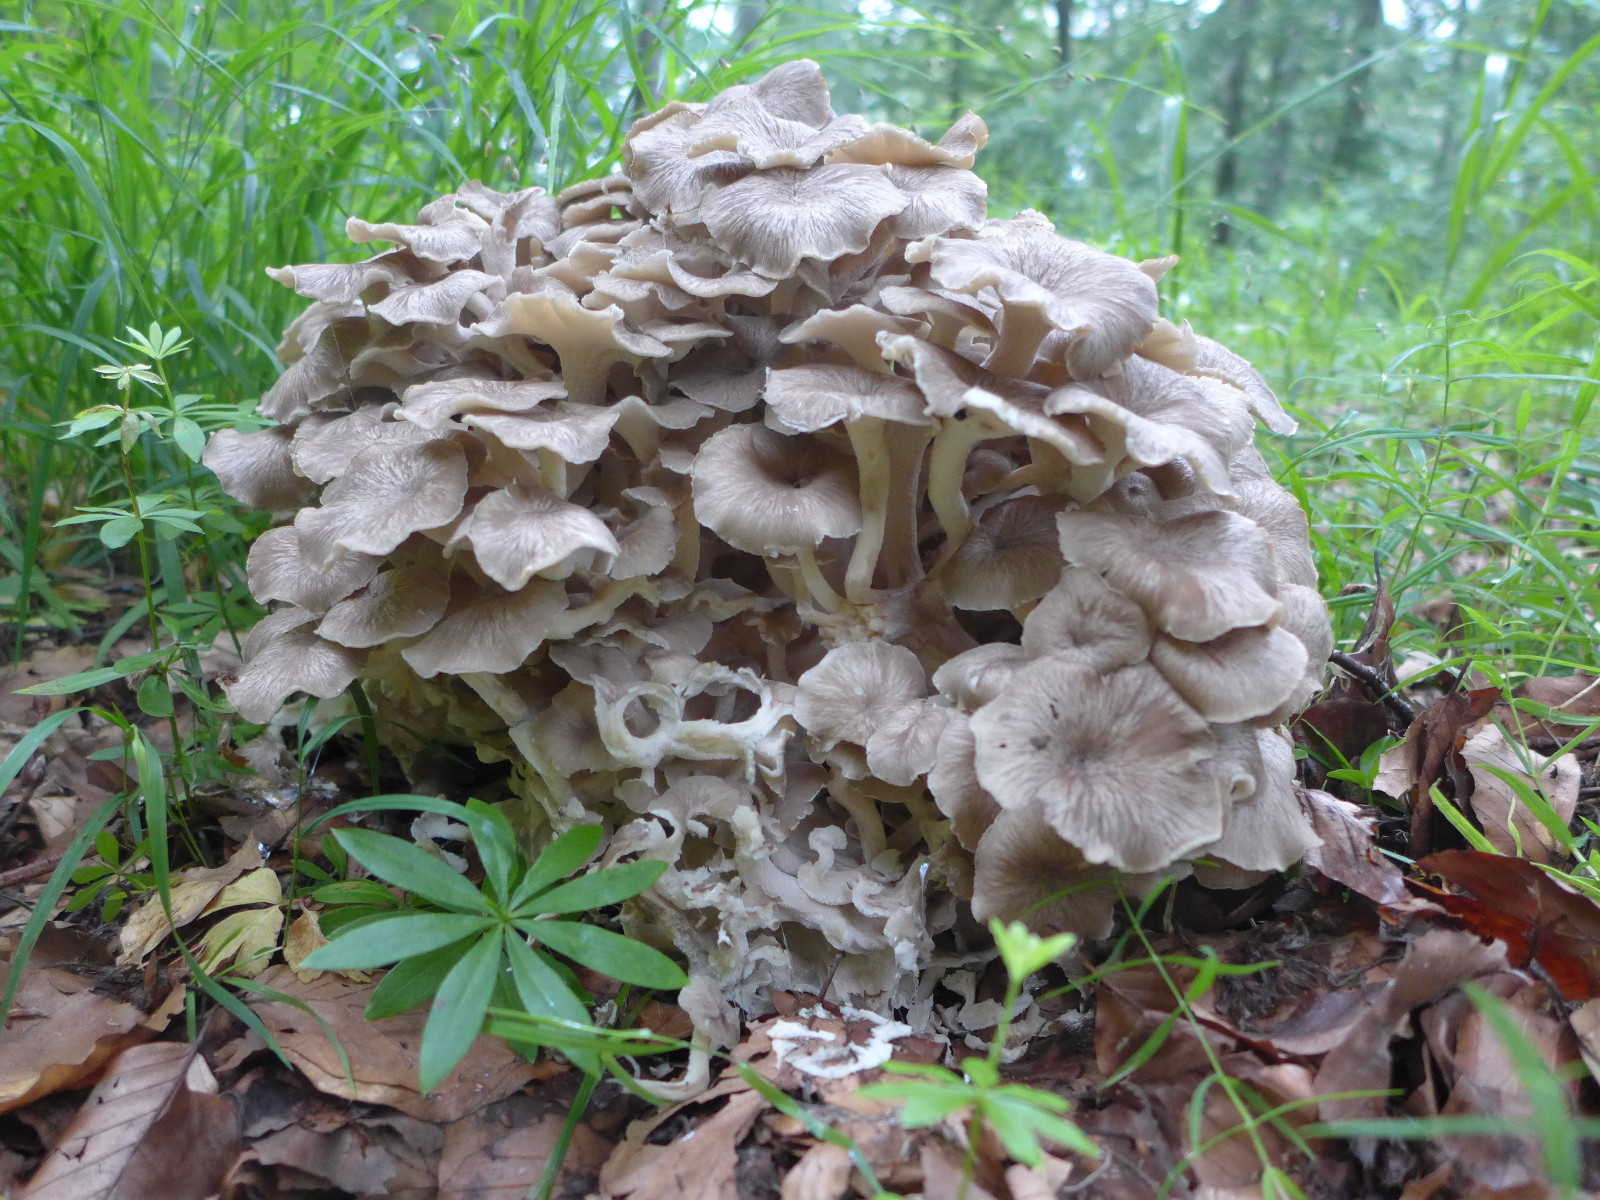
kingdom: Fungi
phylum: Basidiomycota
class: Agaricomycetes
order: Polyporales
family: Polyporaceae
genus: Polyporus
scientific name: Polyporus umbellatus
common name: skærmformet stilkporesvamp
